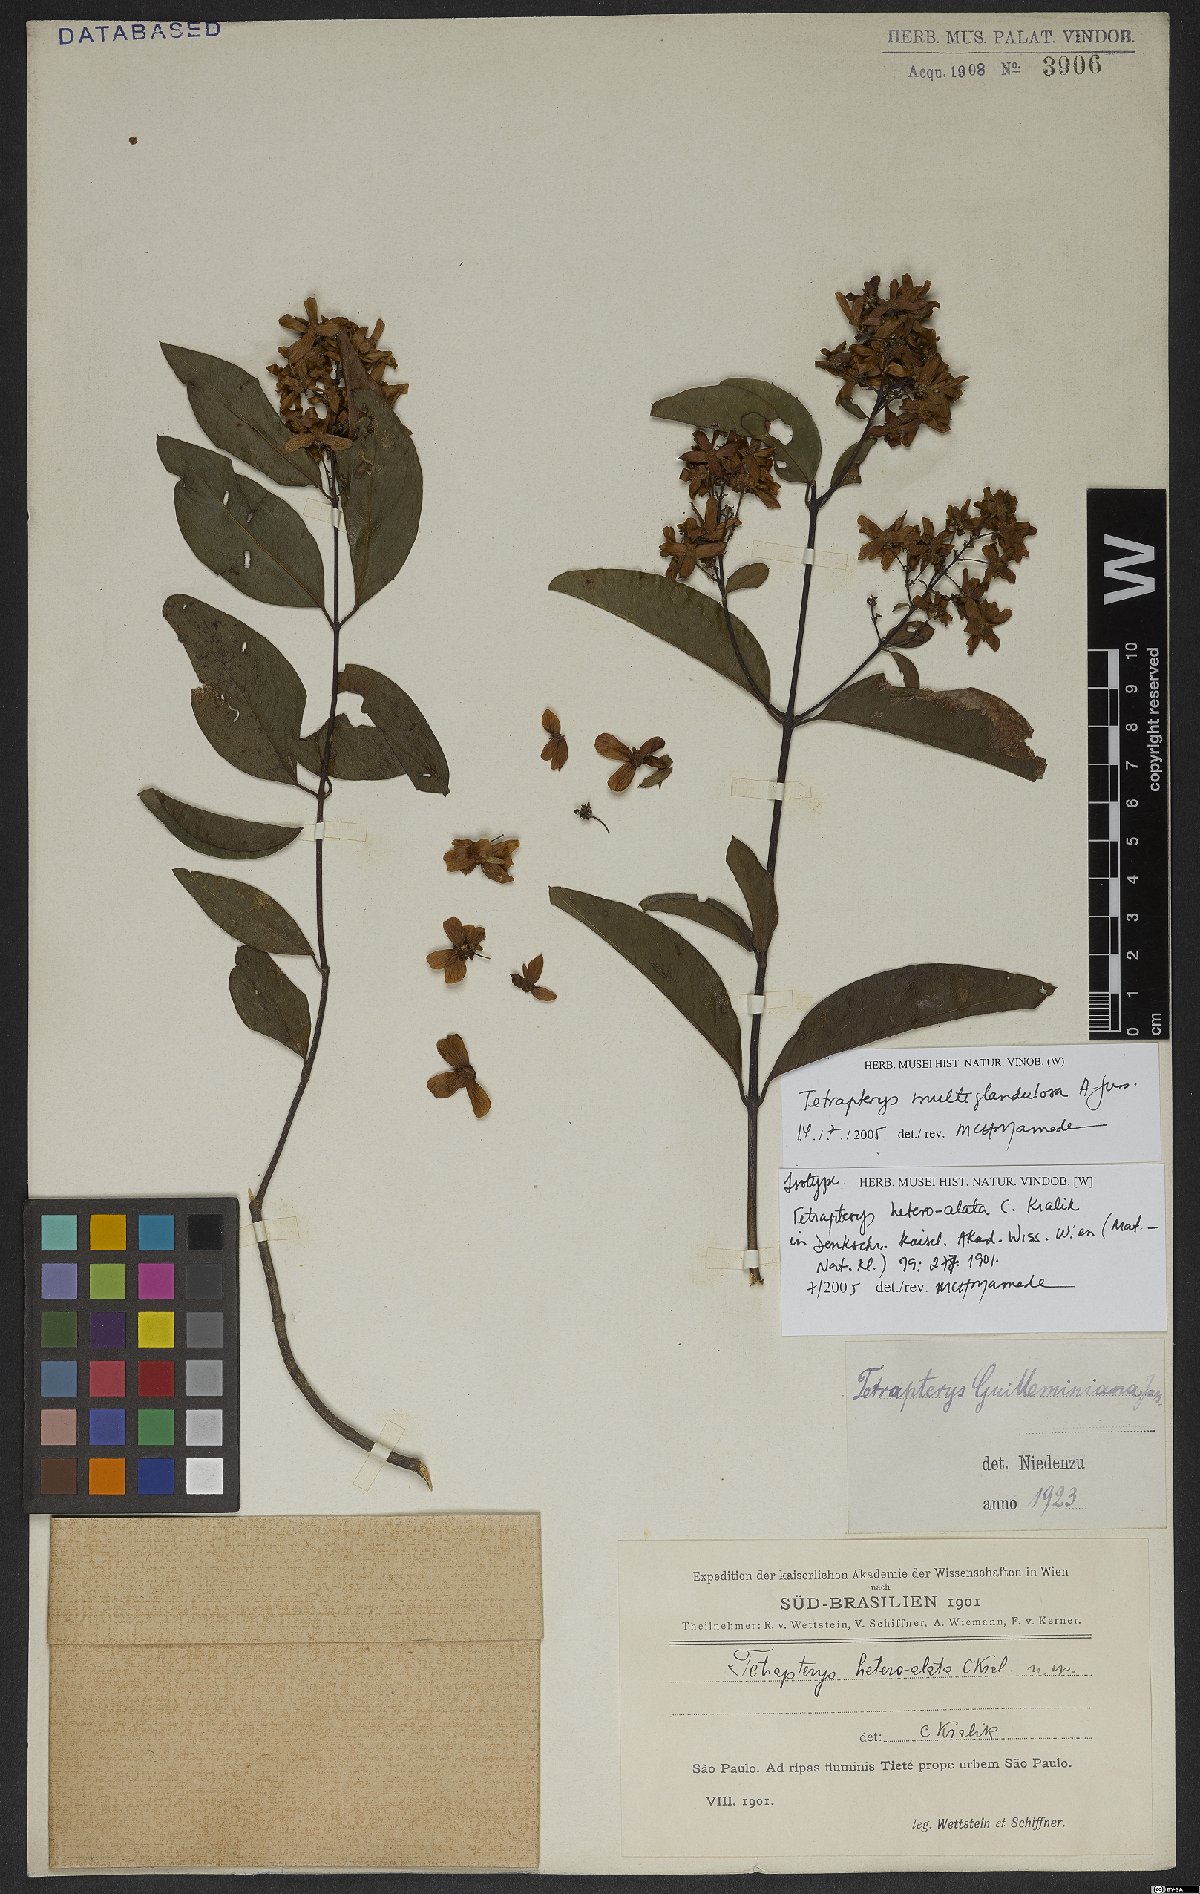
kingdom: Plantae
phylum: Tracheophyta
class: Magnoliopsida
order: Malpighiales
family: Malpighiaceae
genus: Niedenzuella
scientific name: Niedenzuella acutifolia
